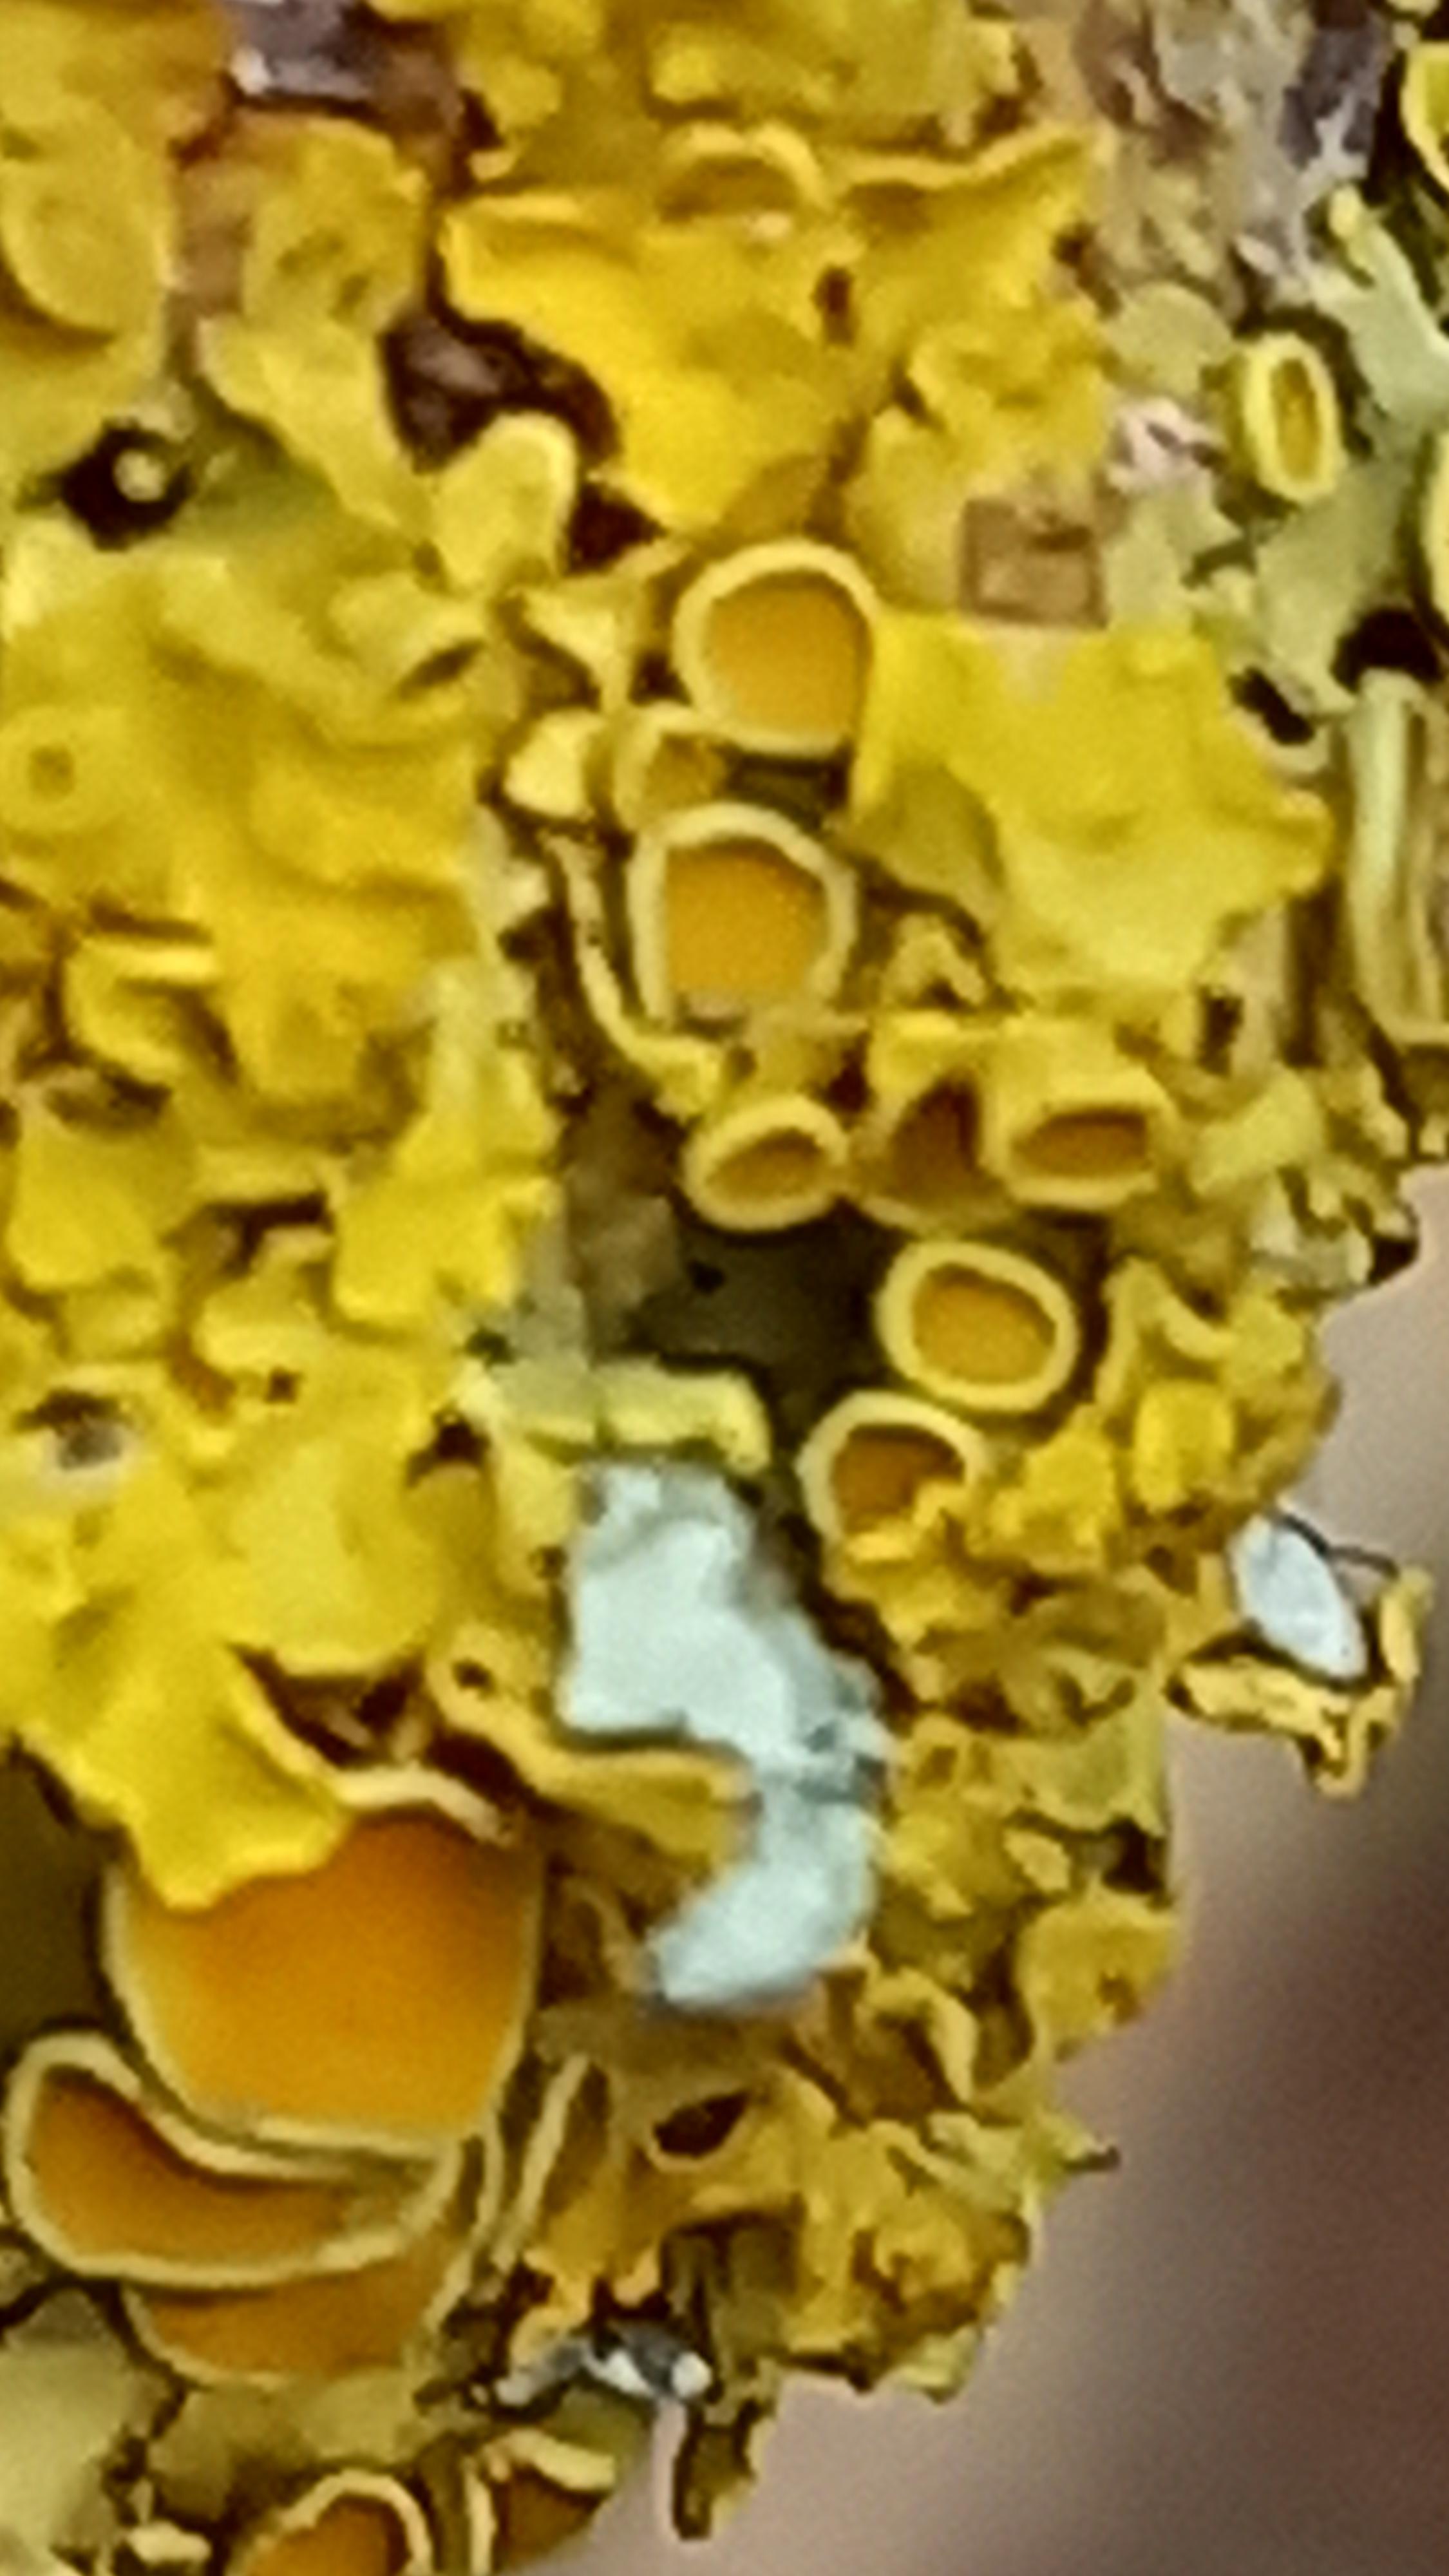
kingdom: Fungi
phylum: Ascomycota
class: Lecanoromycetes
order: Teloschistales
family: Teloschistaceae
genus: Xanthoria
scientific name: Xanthoria parietina
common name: almindelig væggelav
